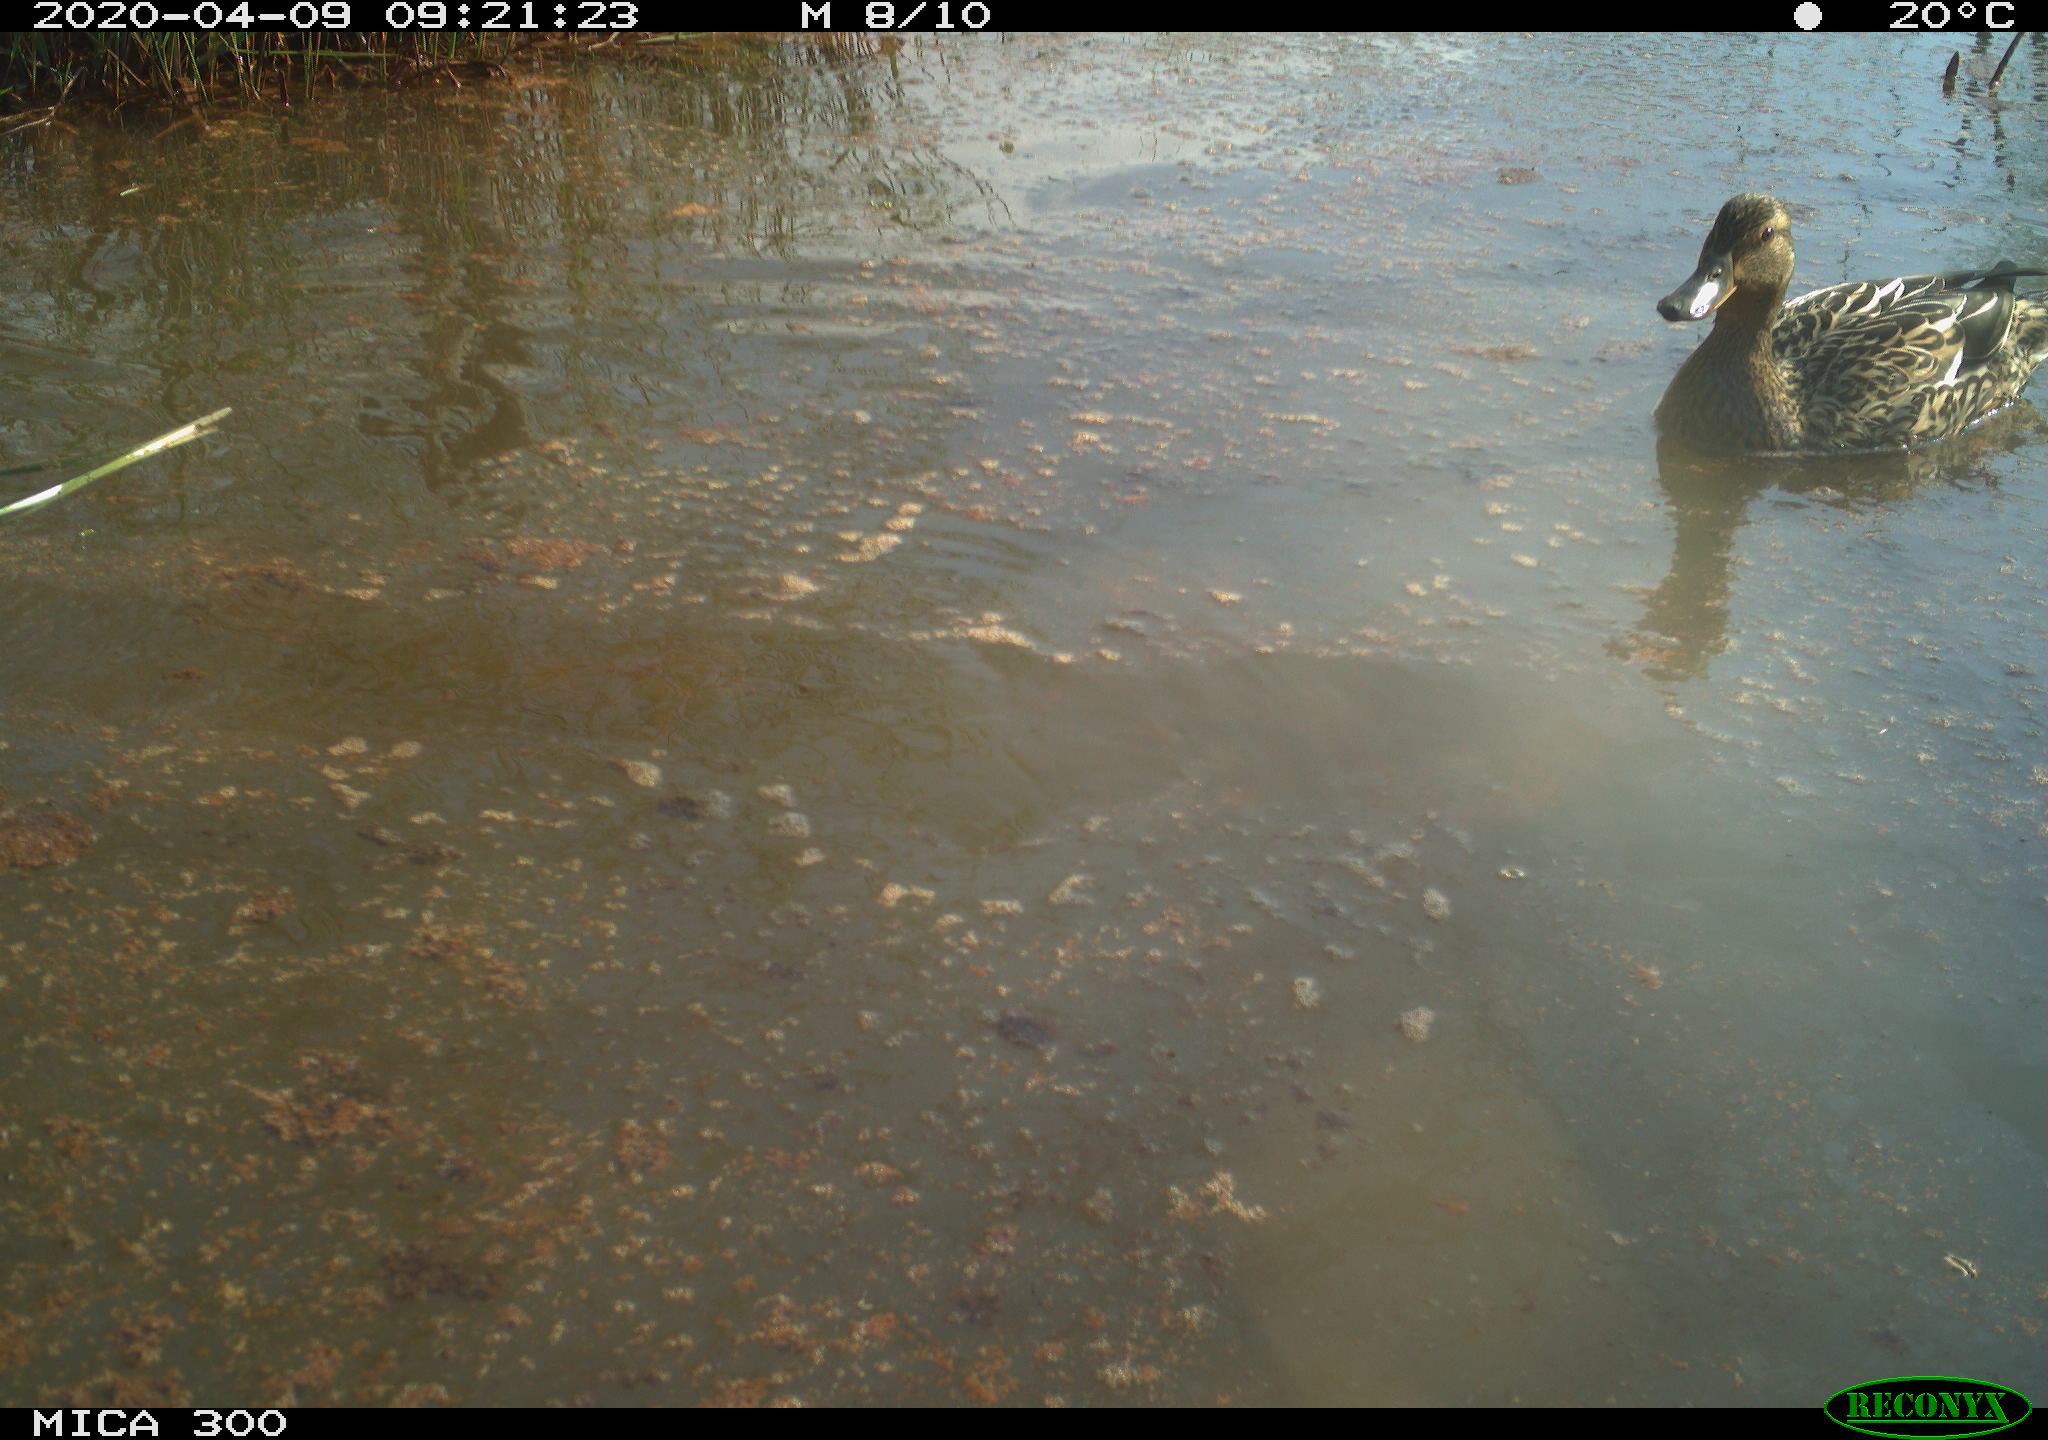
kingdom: Animalia
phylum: Chordata
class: Aves
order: Anseriformes
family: Anatidae
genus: Anas
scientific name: Anas platyrhynchos
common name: Mallard
